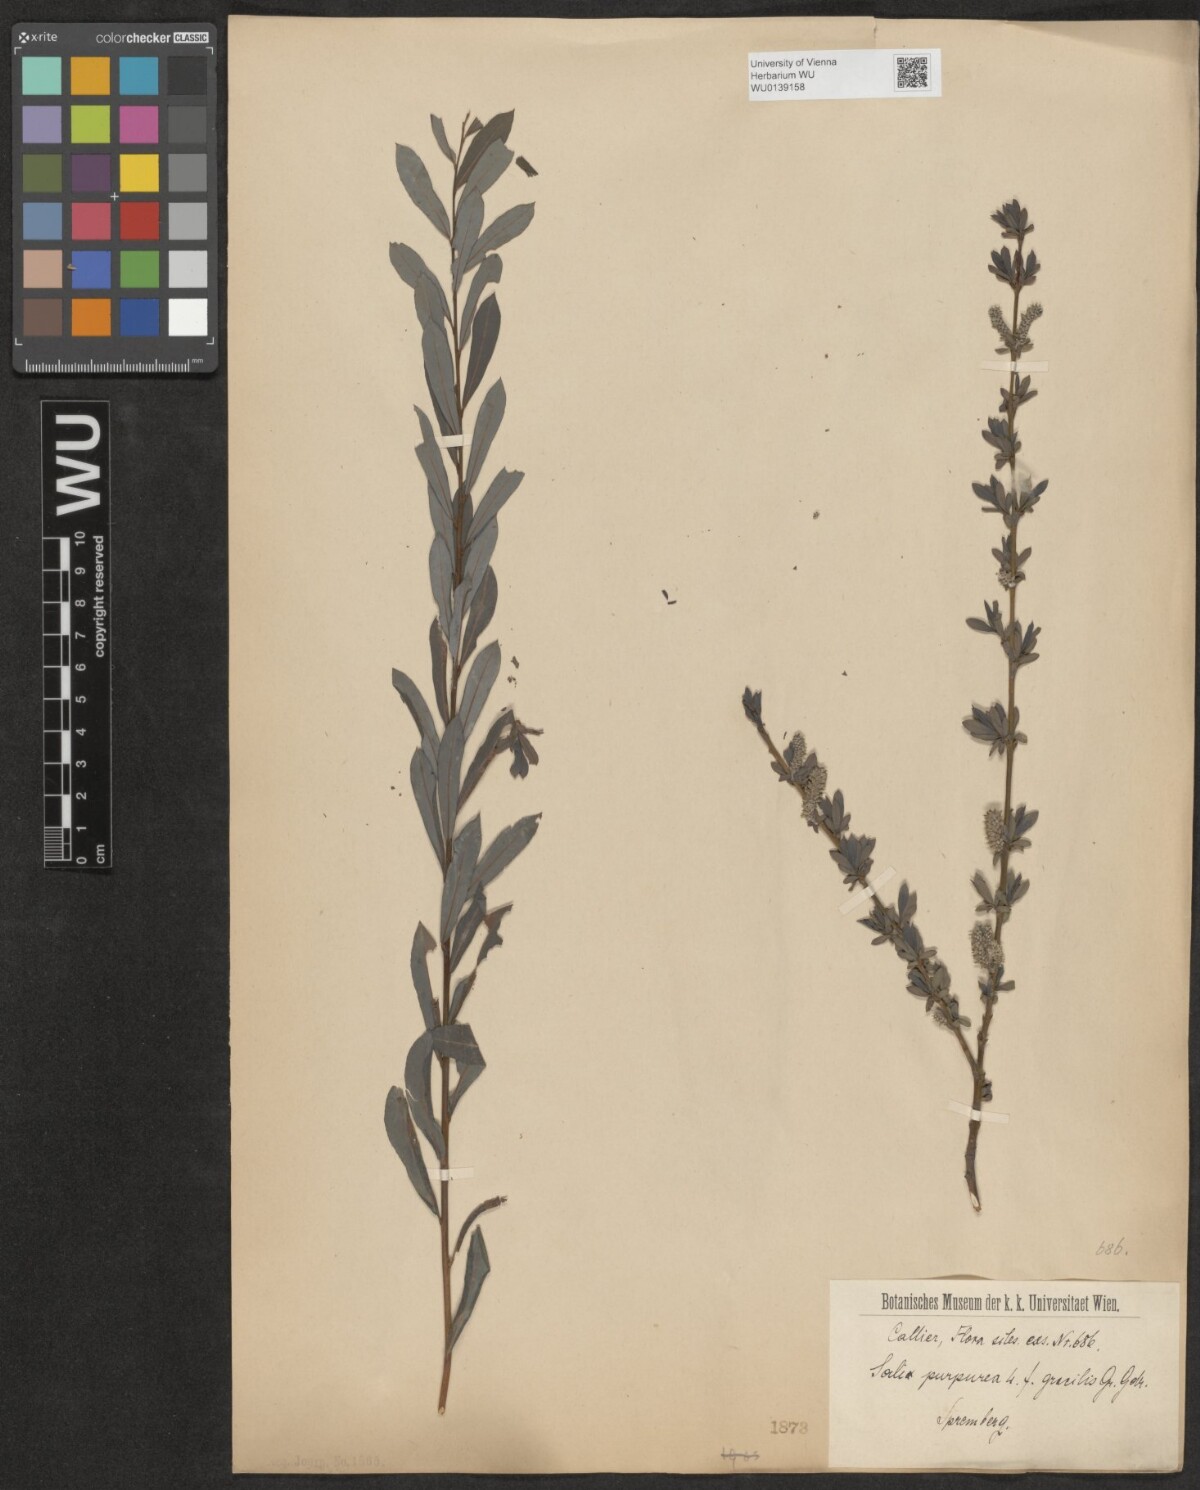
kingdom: Plantae
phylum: Tracheophyta
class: Magnoliopsida
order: Malpighiales
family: Salicaceae
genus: Salix
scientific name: Salix purpurea
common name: Purple willow
